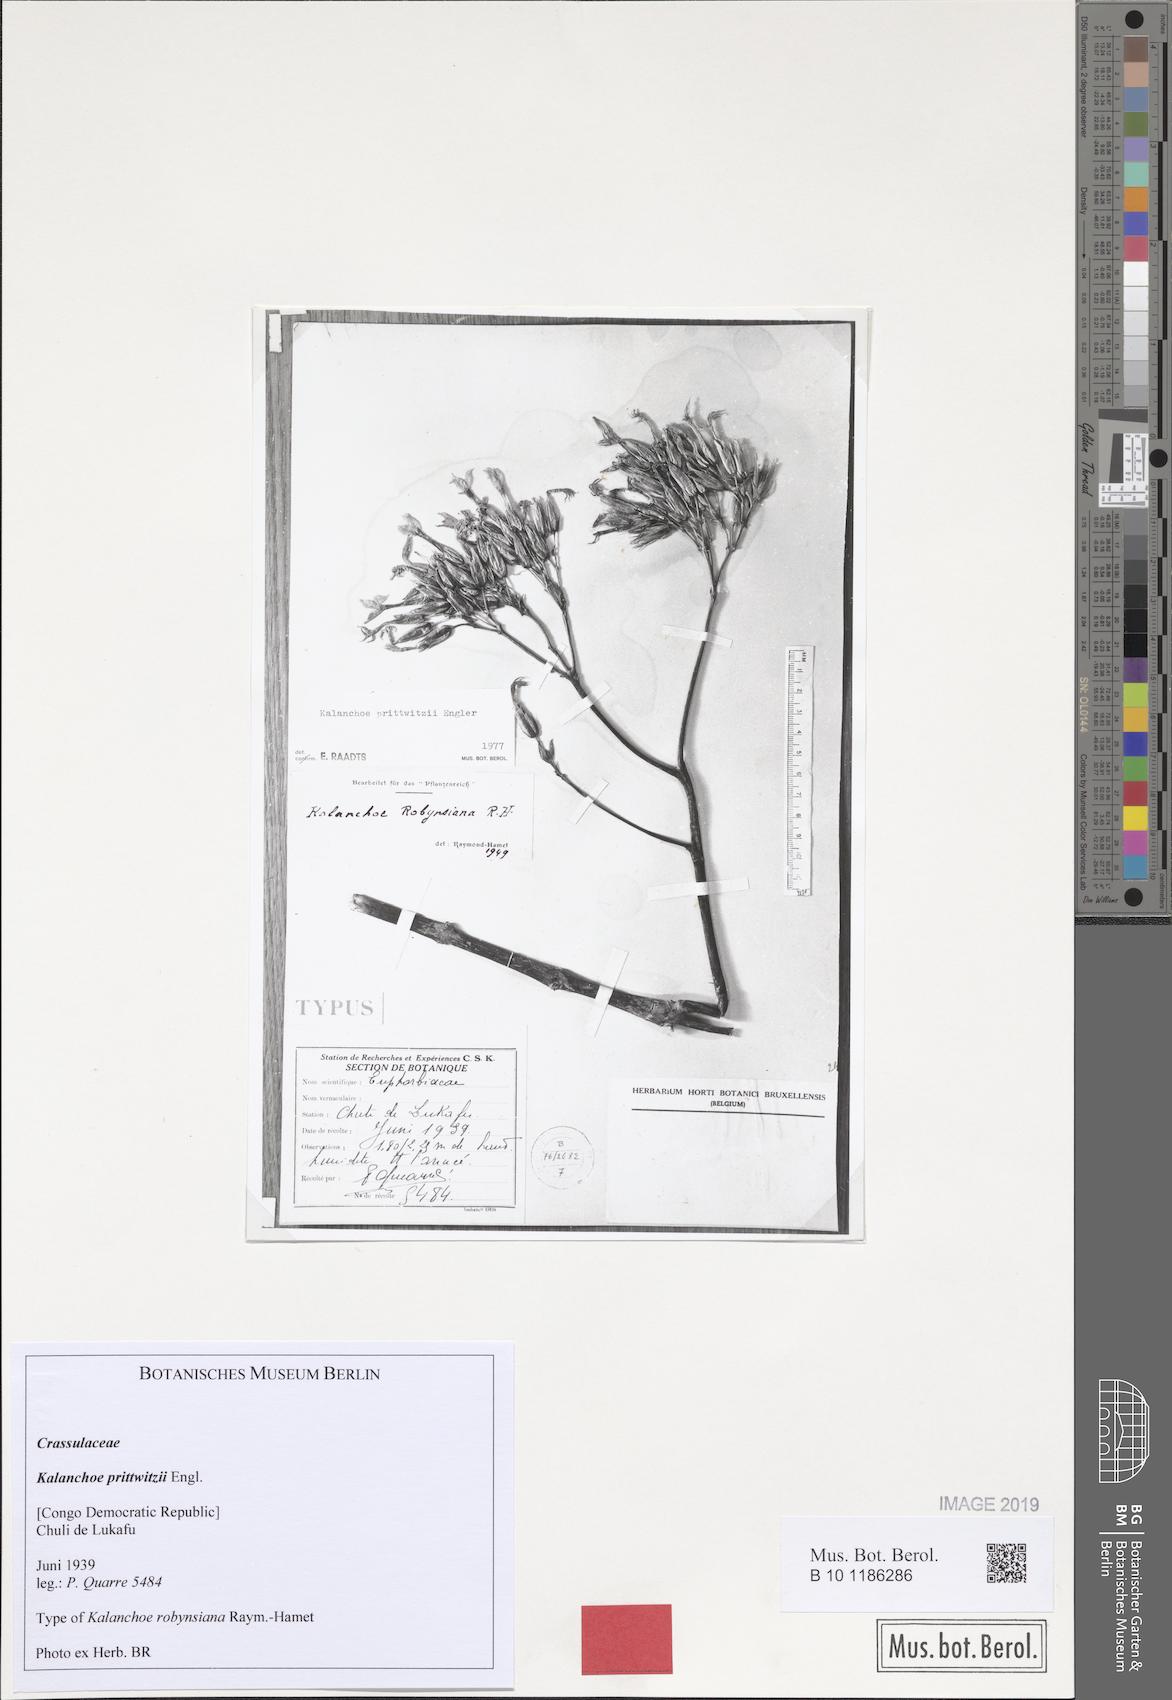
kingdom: Plantae
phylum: Tracheophyta
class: Magnoliopsida
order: Saxifragales
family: Crassulaceae
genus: Kalanchoe
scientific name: Kalanchoe prittwitzii
